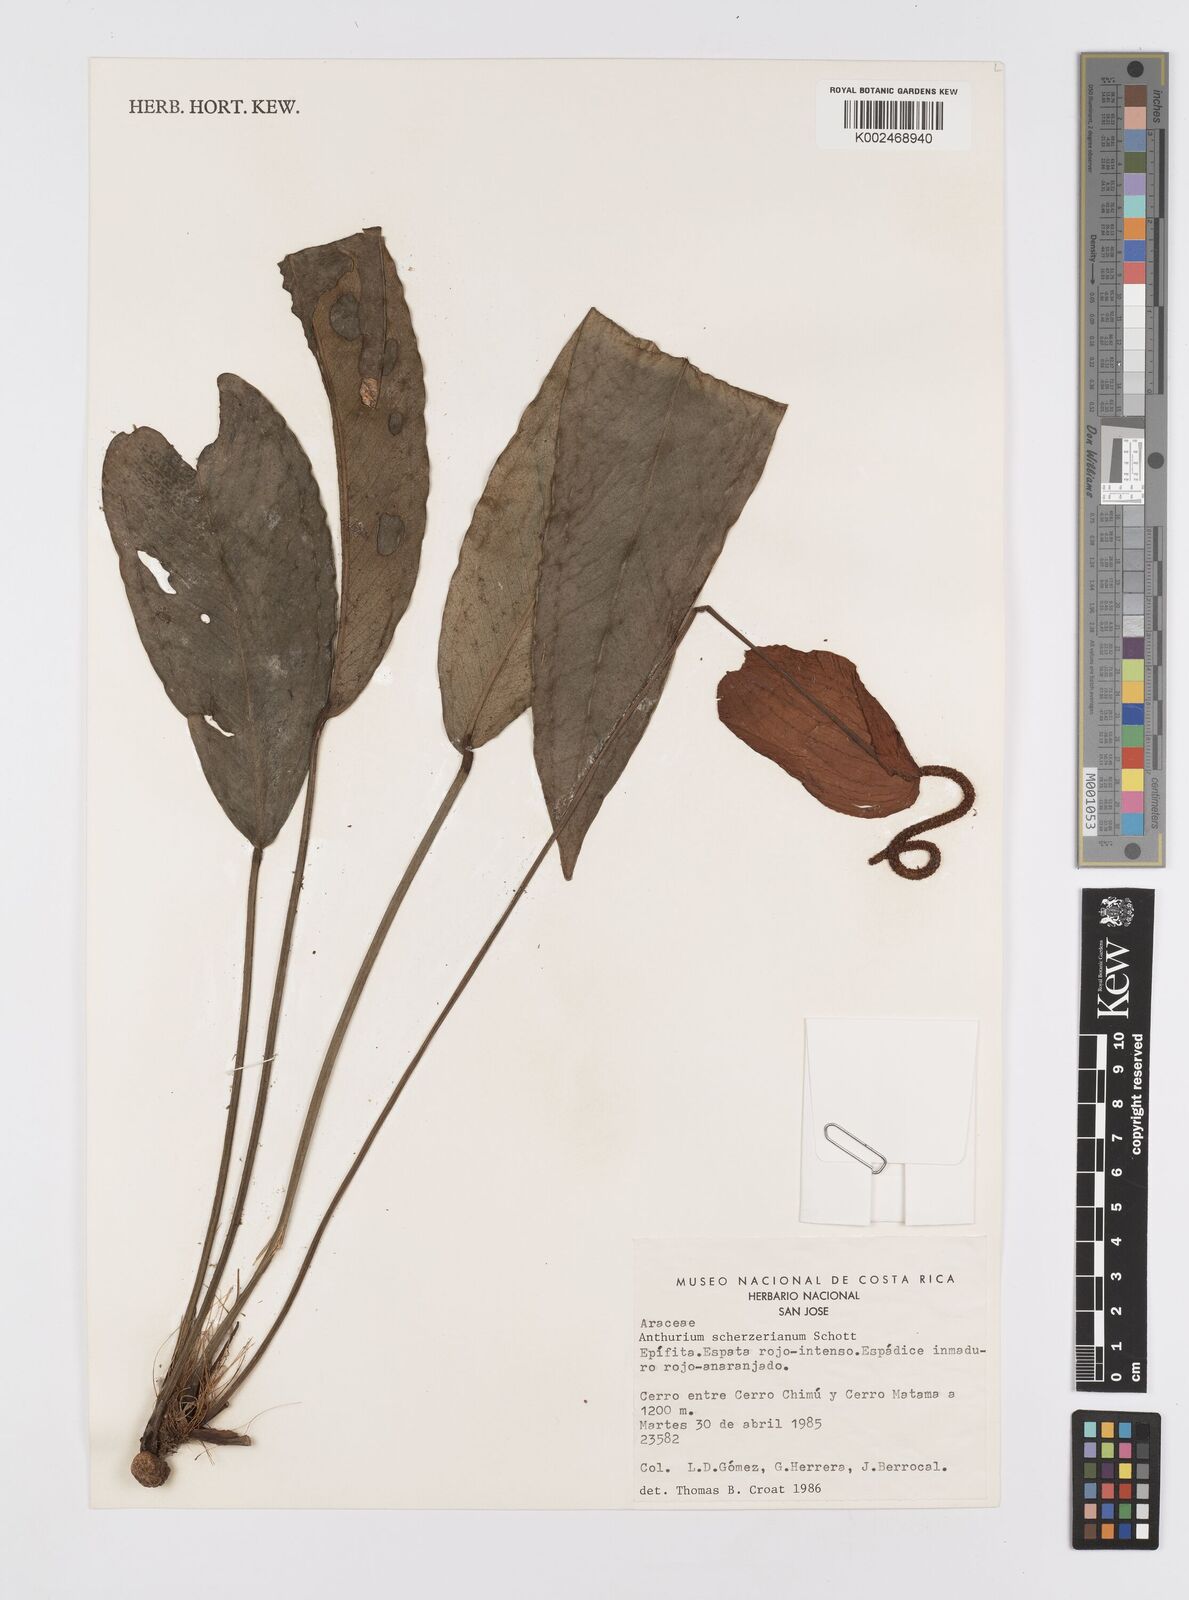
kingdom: Plantae
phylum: Tracheophyta
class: Liliopsida
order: Alismatales
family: Araceae
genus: Anthurium
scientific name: Anthurium scherzerianum
